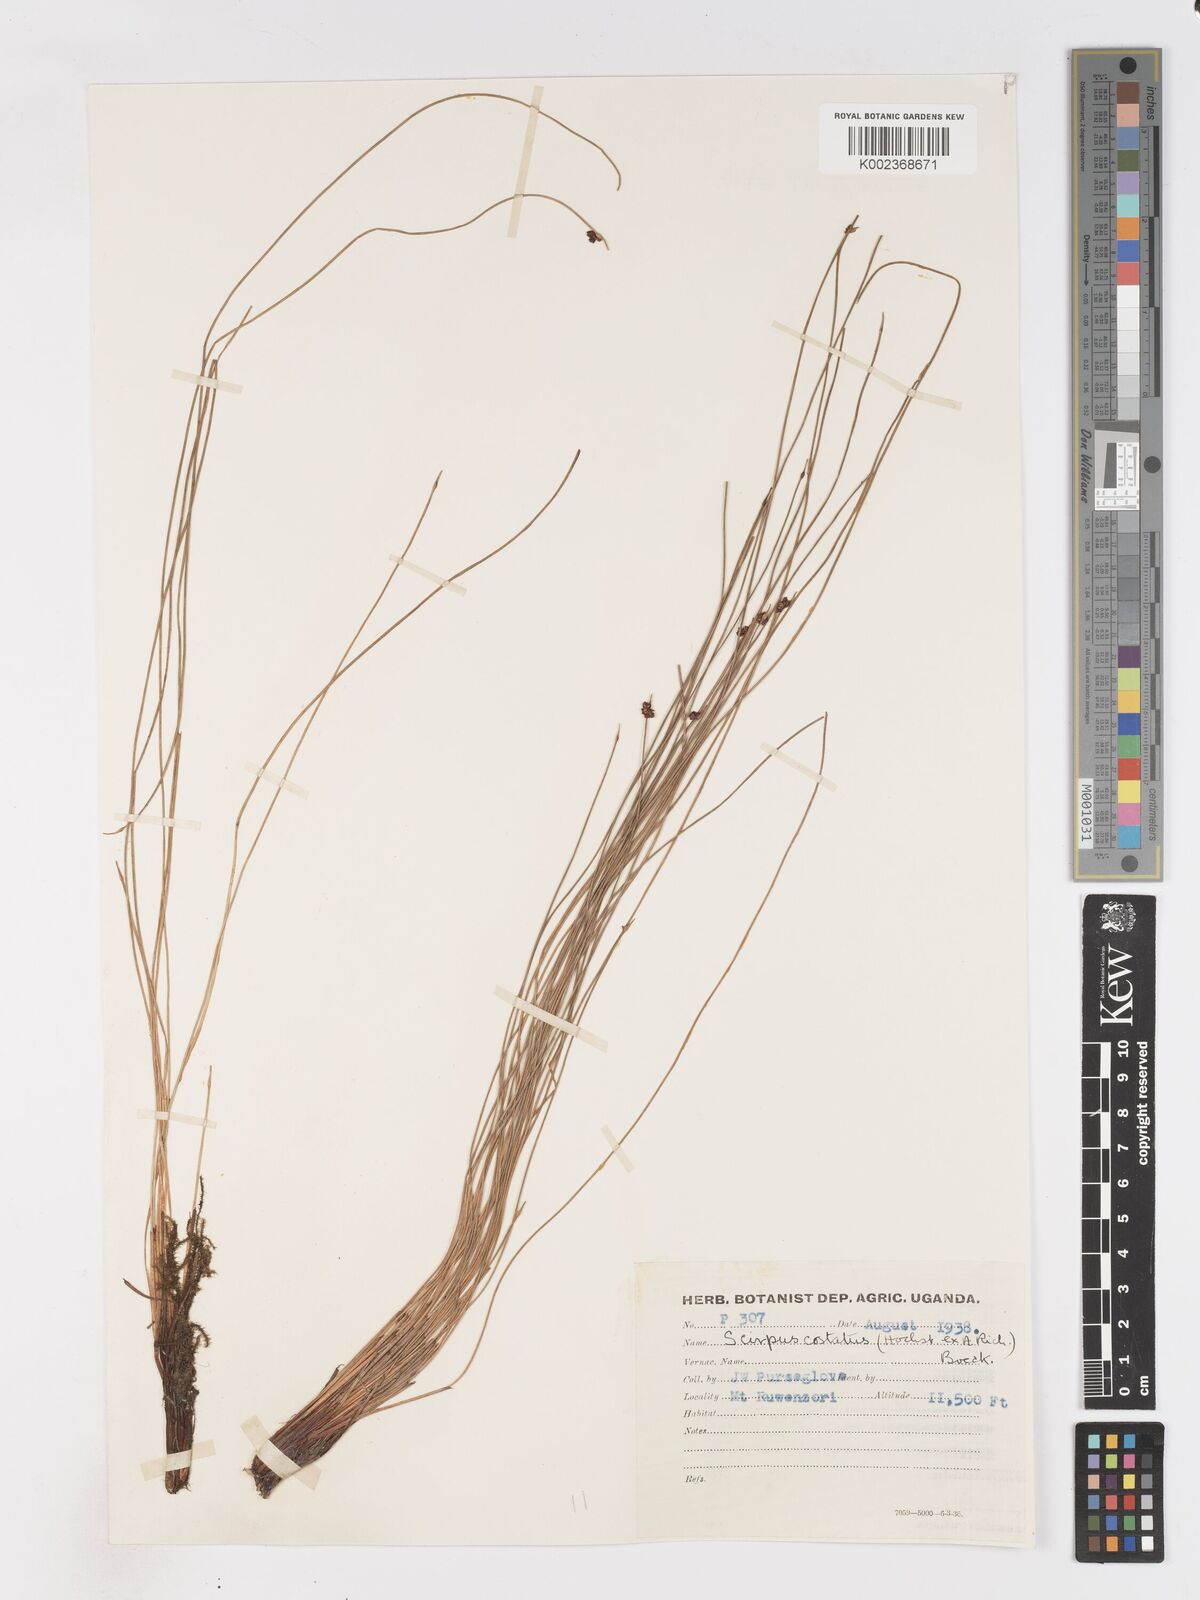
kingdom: Plantae
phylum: Tracheophyta
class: Liliopsida
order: Poales
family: Cyperaceae
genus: Isolepis
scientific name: Isolepis costata
